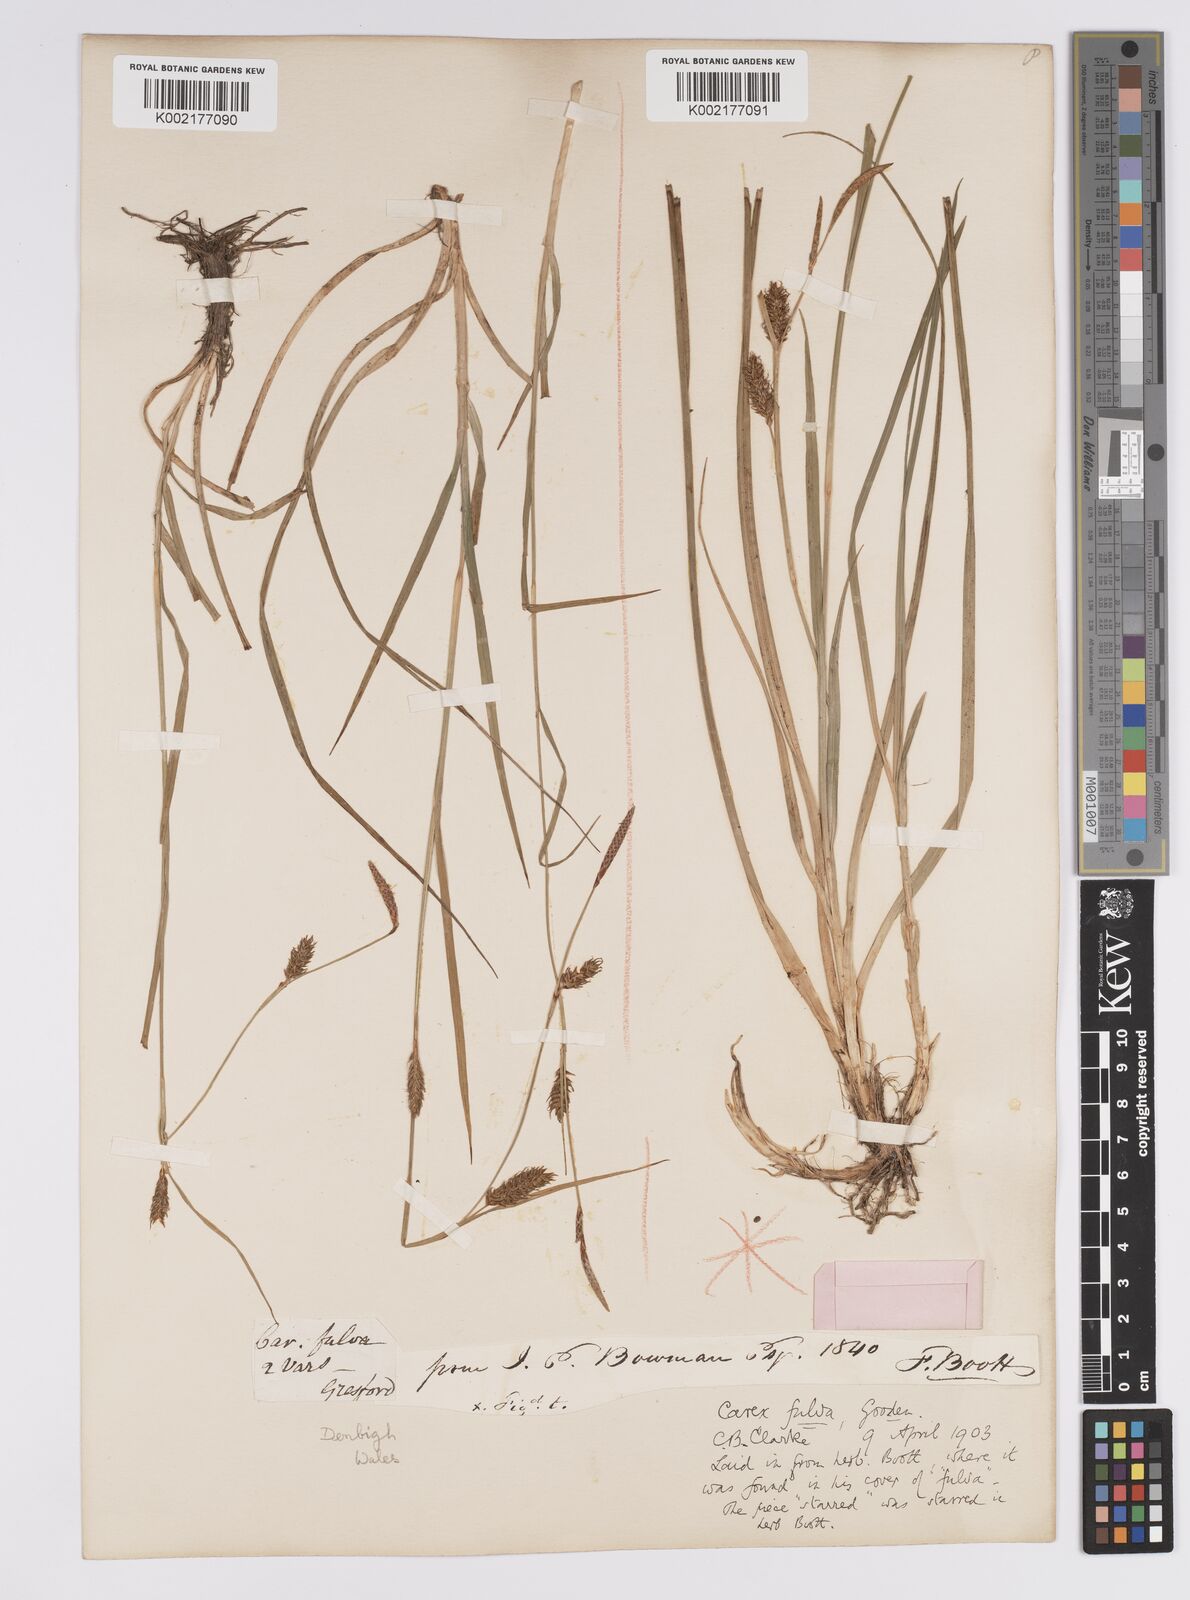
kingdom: Plantae
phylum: Tracheophyta
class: Liliopsida
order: Poales
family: Cyperaceae
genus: Carex
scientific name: Carex hostiana
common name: Tawny sedge
